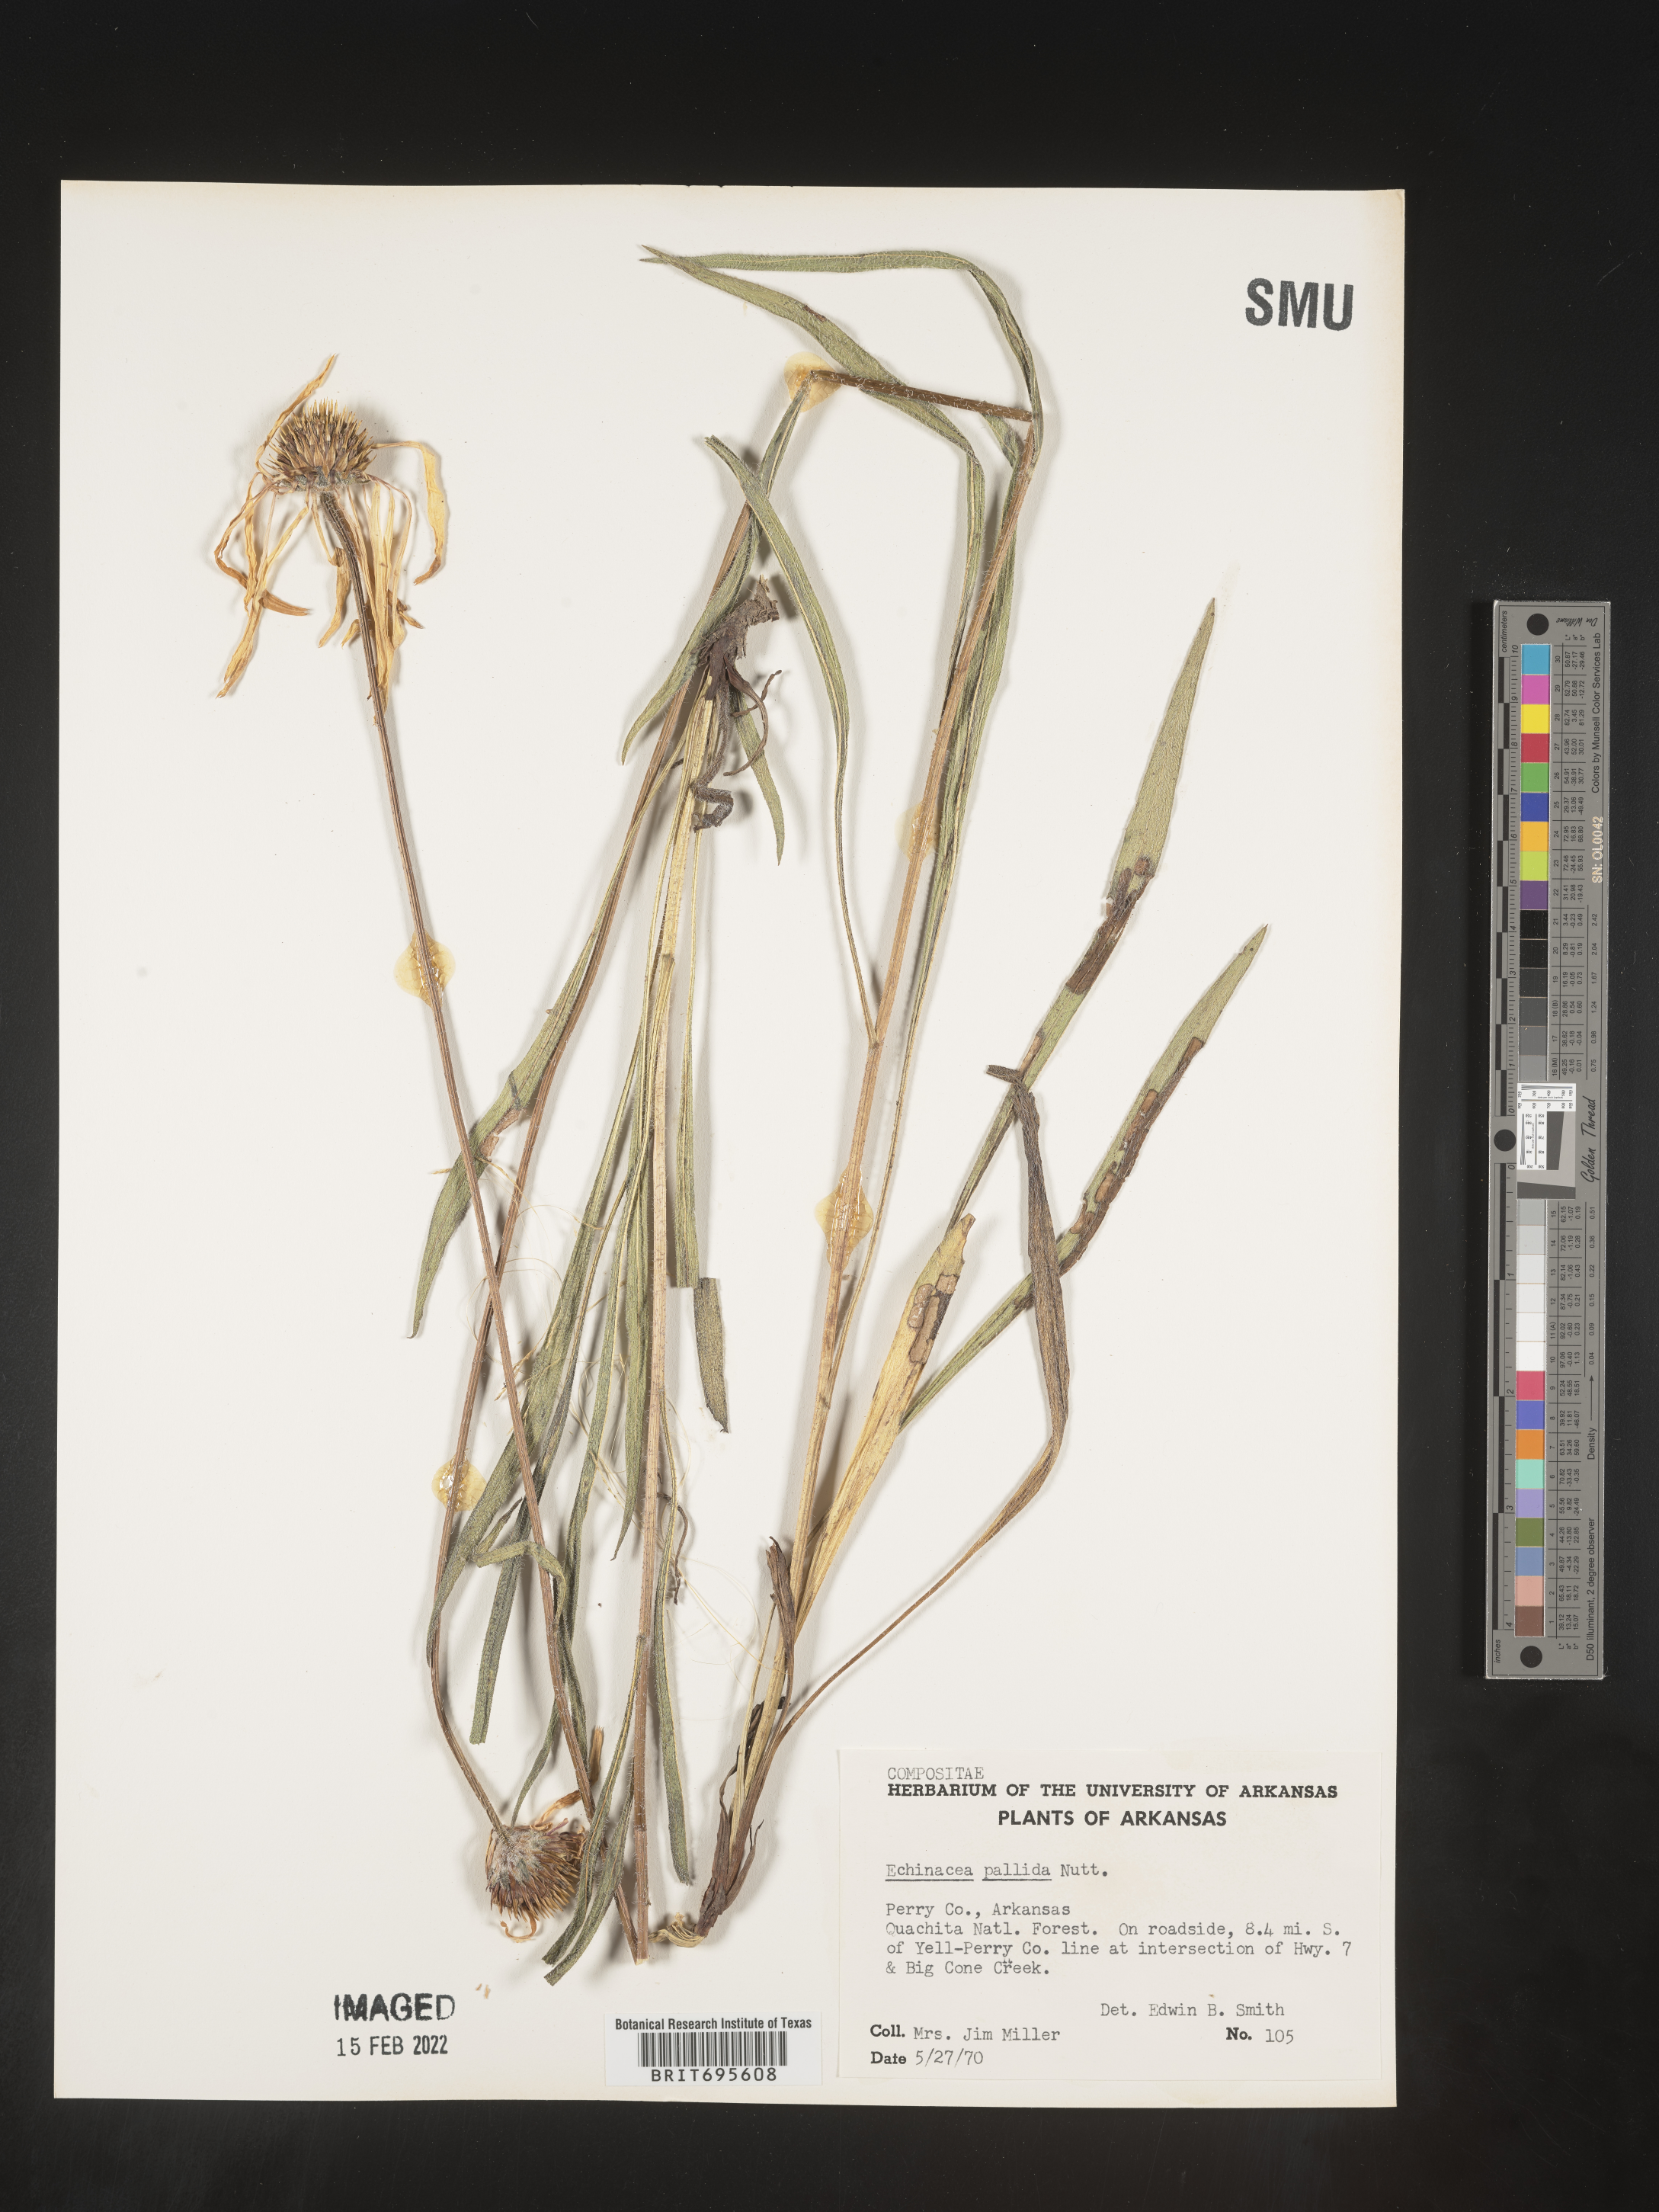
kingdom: Plantae
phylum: Tracheophyta
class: Magnoliopsida
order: Asterales
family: Asteraceae
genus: Echinacea
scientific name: Echinacea pallida
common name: Pale echinacea
